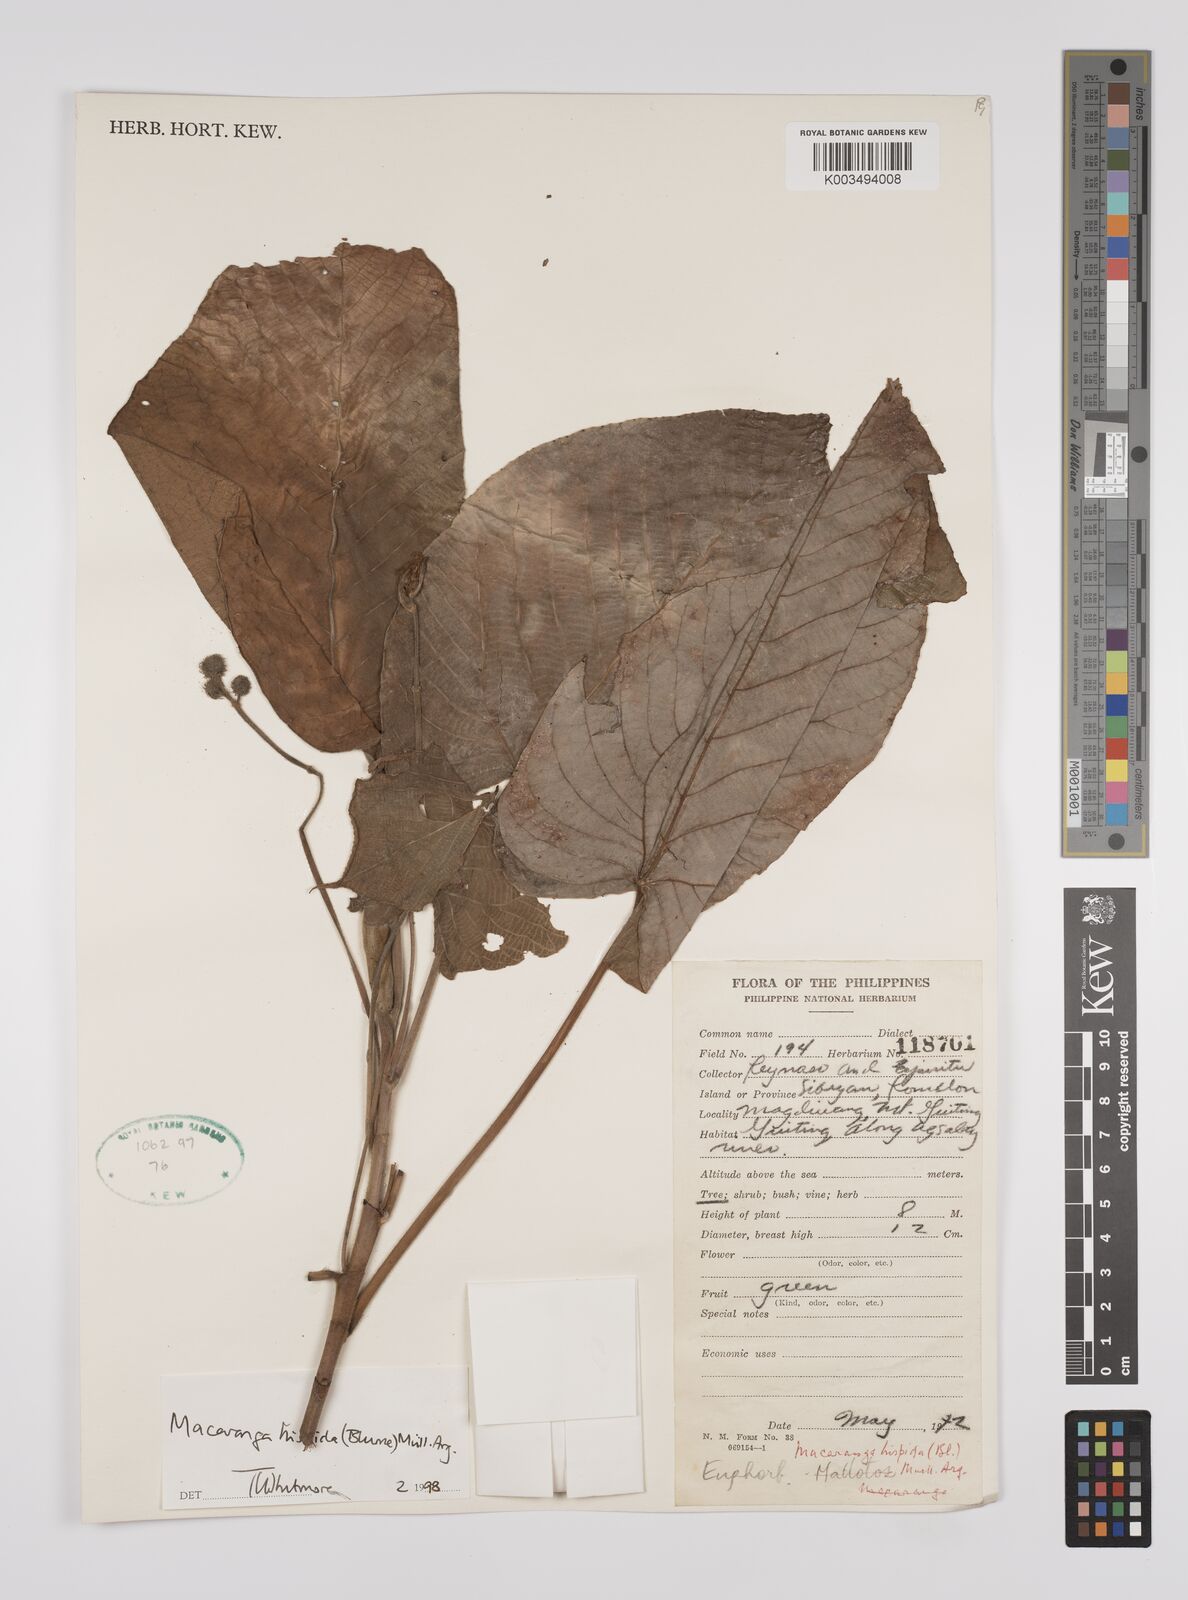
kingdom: Plantae
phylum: Tracheophyta
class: Magnoliopsida
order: Malpighiales
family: Euphorbiaceae
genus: Macaranga
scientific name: Macaranga hispida
